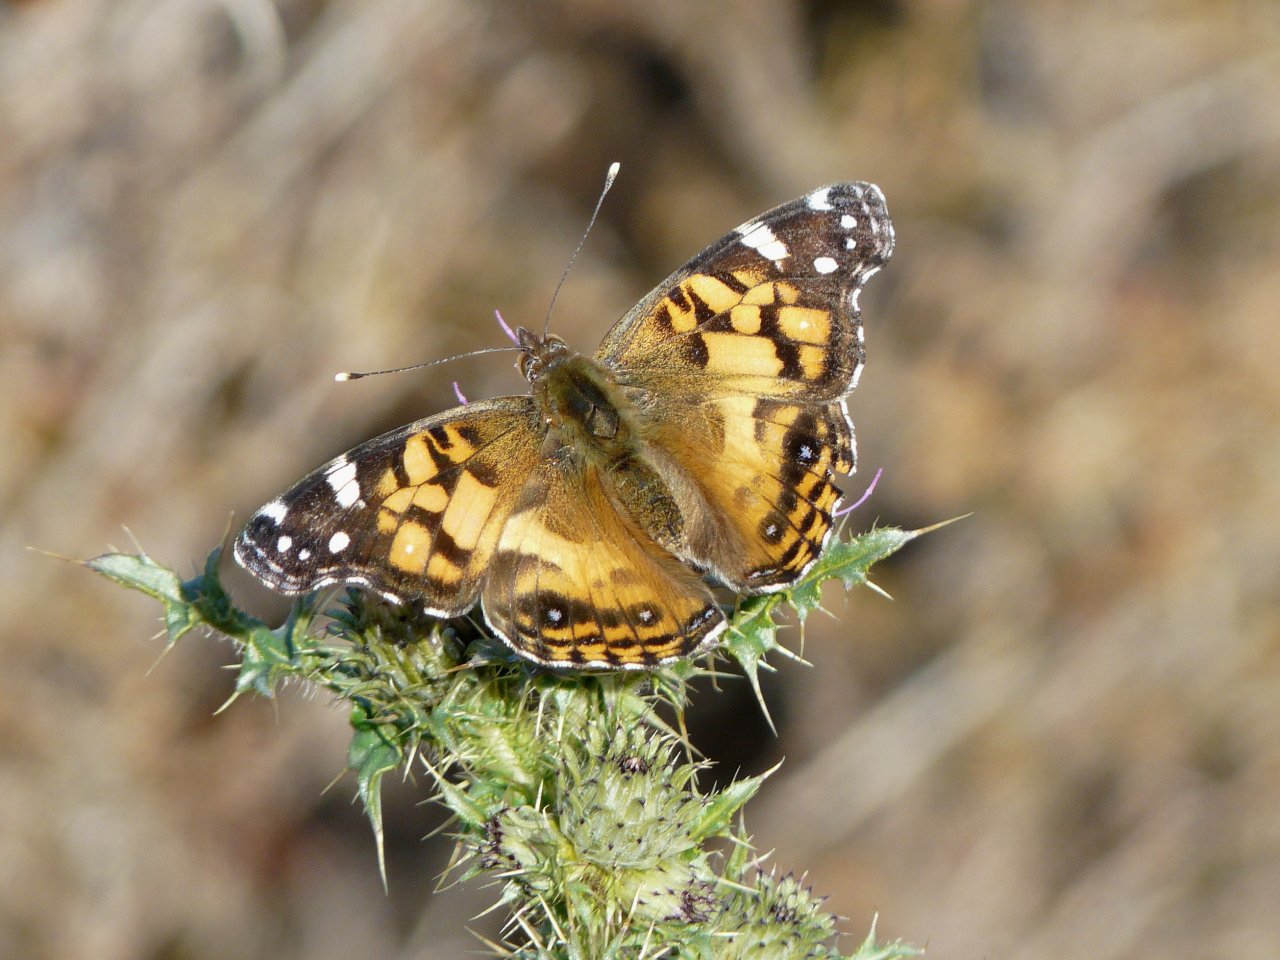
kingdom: Animalia
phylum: Arthropoda
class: Insecta
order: Lepidoptera
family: Nymphalidae
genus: Vanessa
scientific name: Vanessa virginiensis
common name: American Lady
